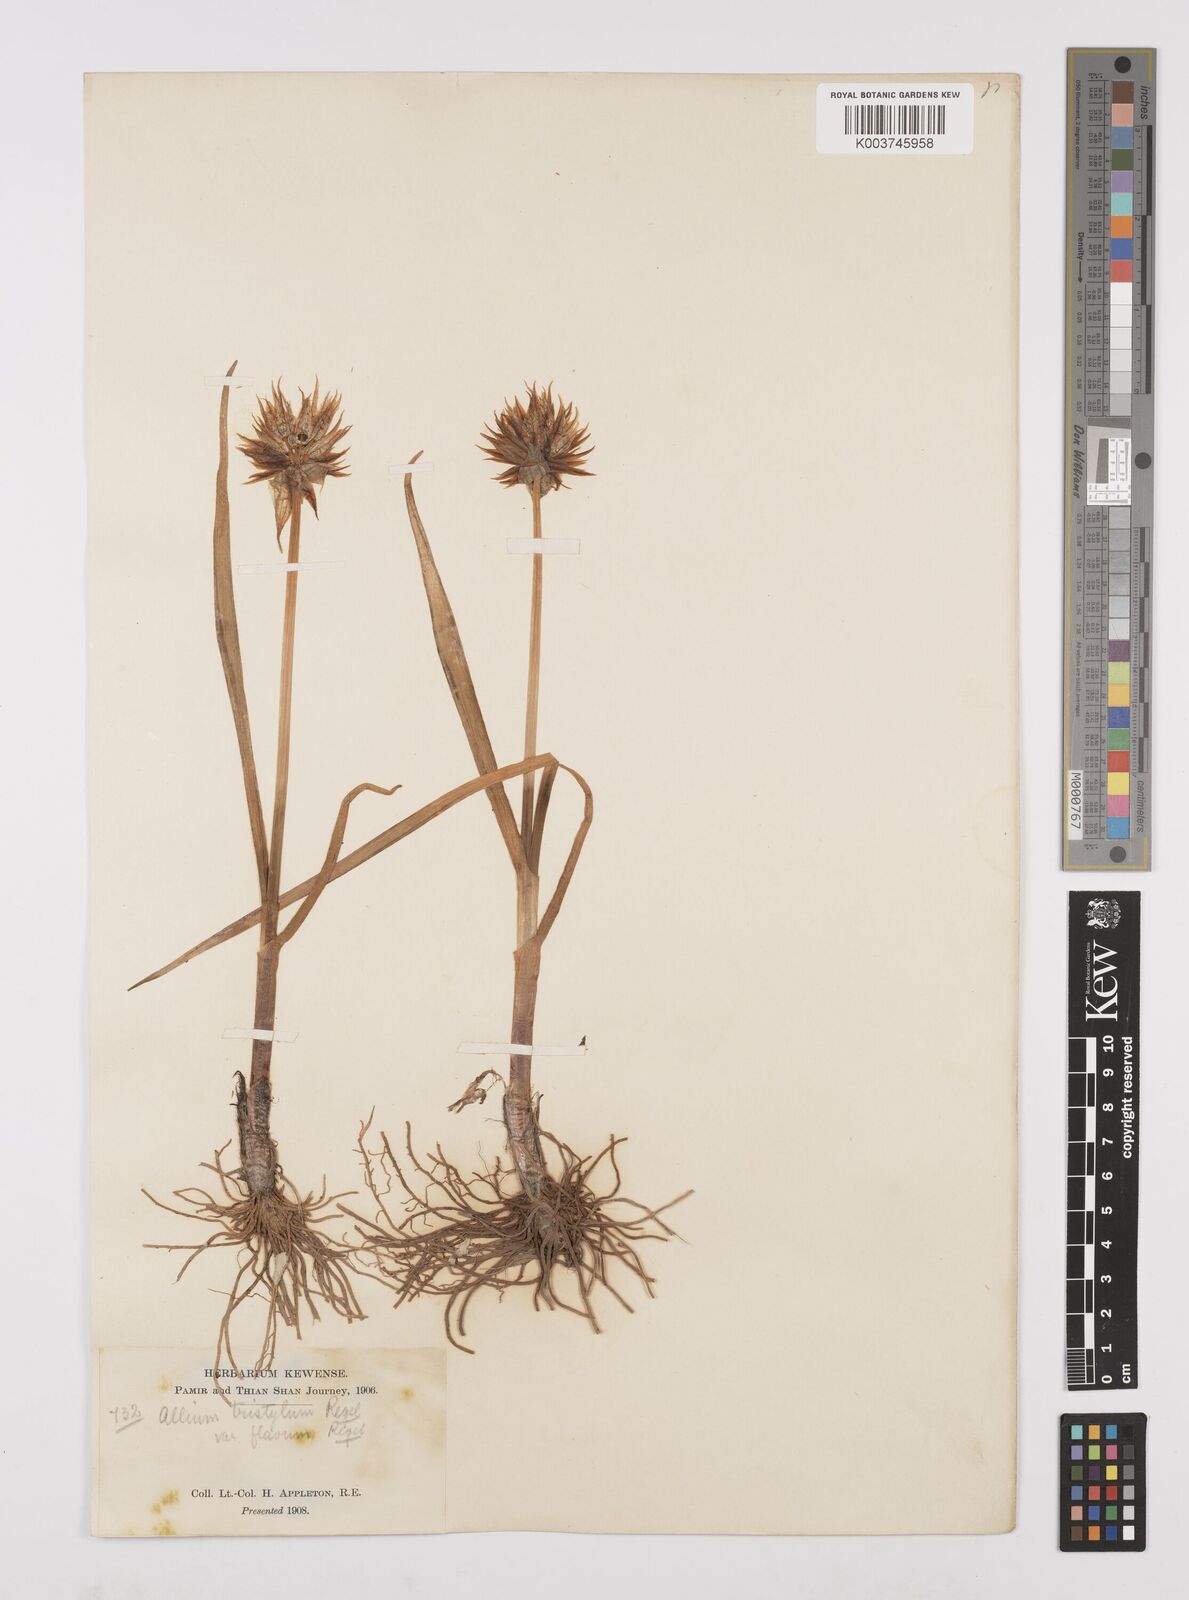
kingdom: Plantae
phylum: Tracheophyta
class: Liliopsida
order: Asparagales
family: Amaryllidaceae
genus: Allium
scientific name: Allium semenovii
